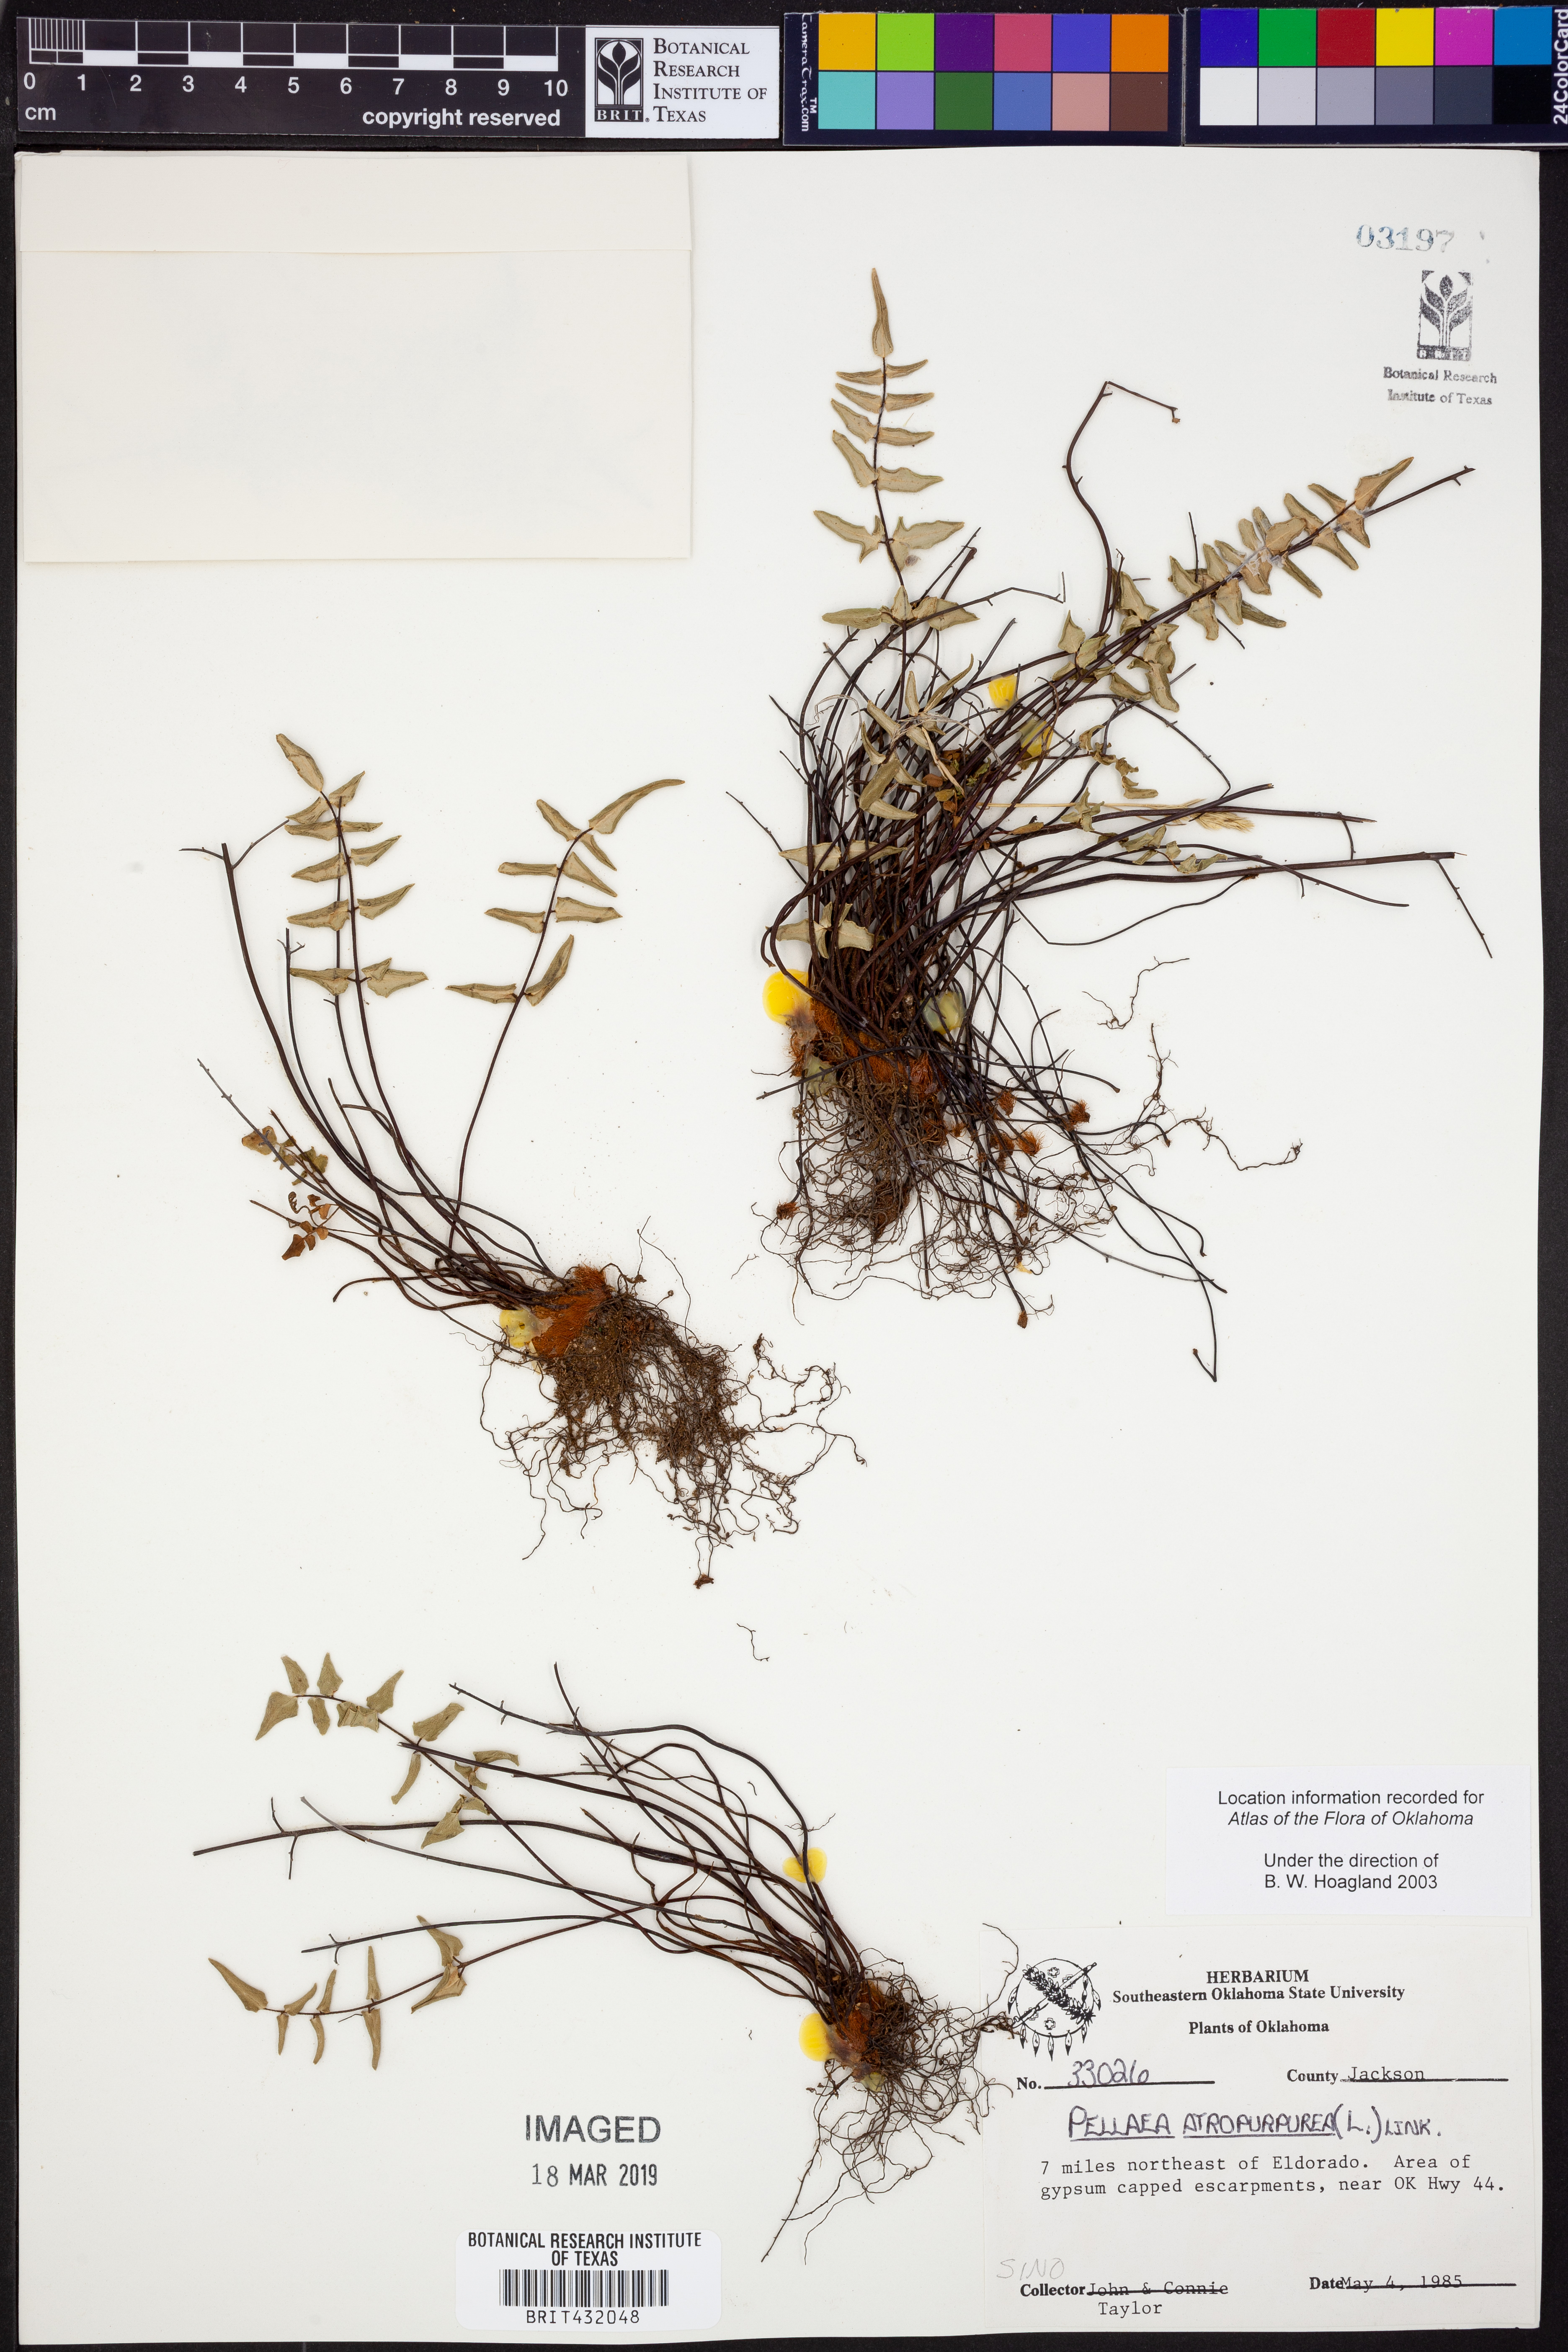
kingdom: Plantae
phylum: Tracheophyta
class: Polypodiopsida
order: Polypodiales
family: Pteridaceae
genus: Pellaea
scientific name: Pellaea atropurpurea
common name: Hairy cliffbrake
